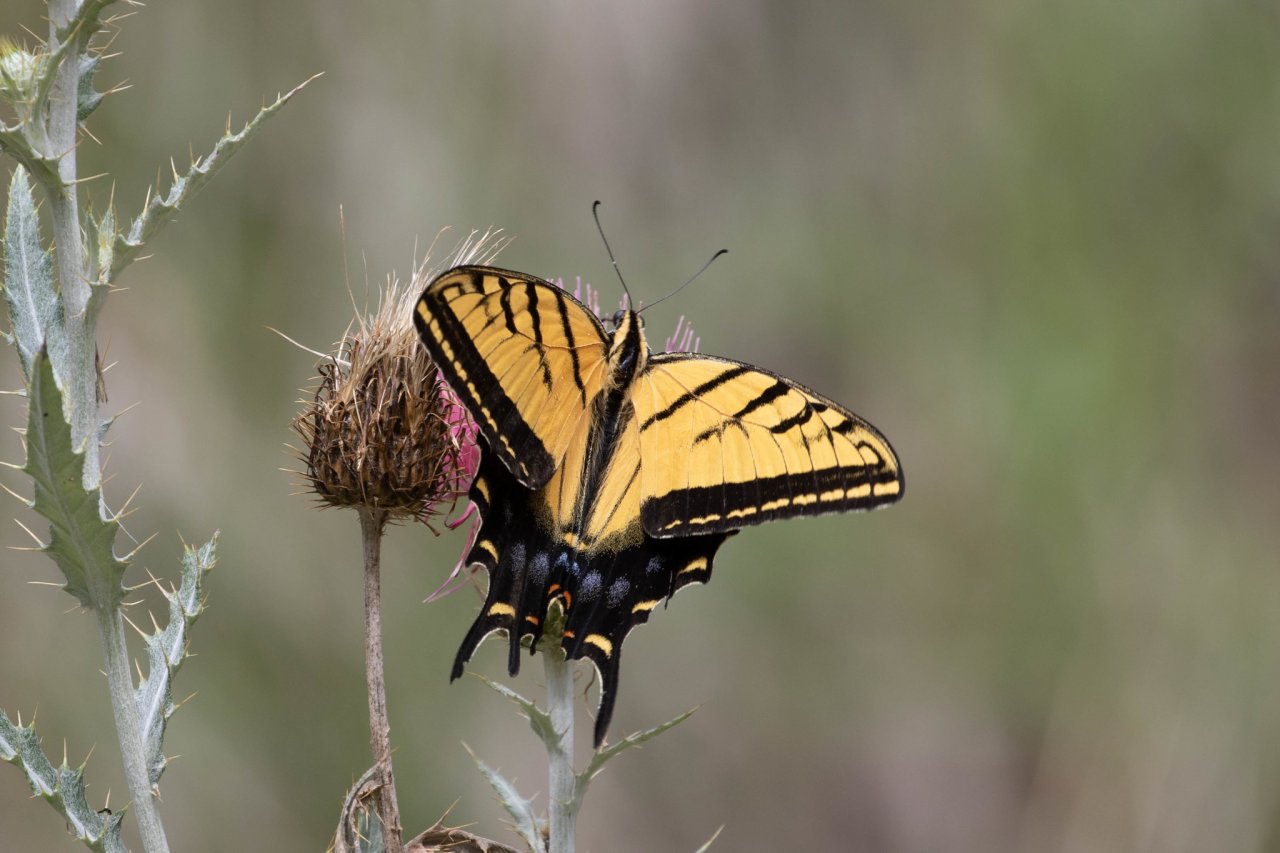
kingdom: Animalia
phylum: Arthropoda
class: Insecta
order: Lepidoptera
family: Papilionidae
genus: Papilio
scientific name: Papilio multicaudata
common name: Two-tailed Swallowtail
